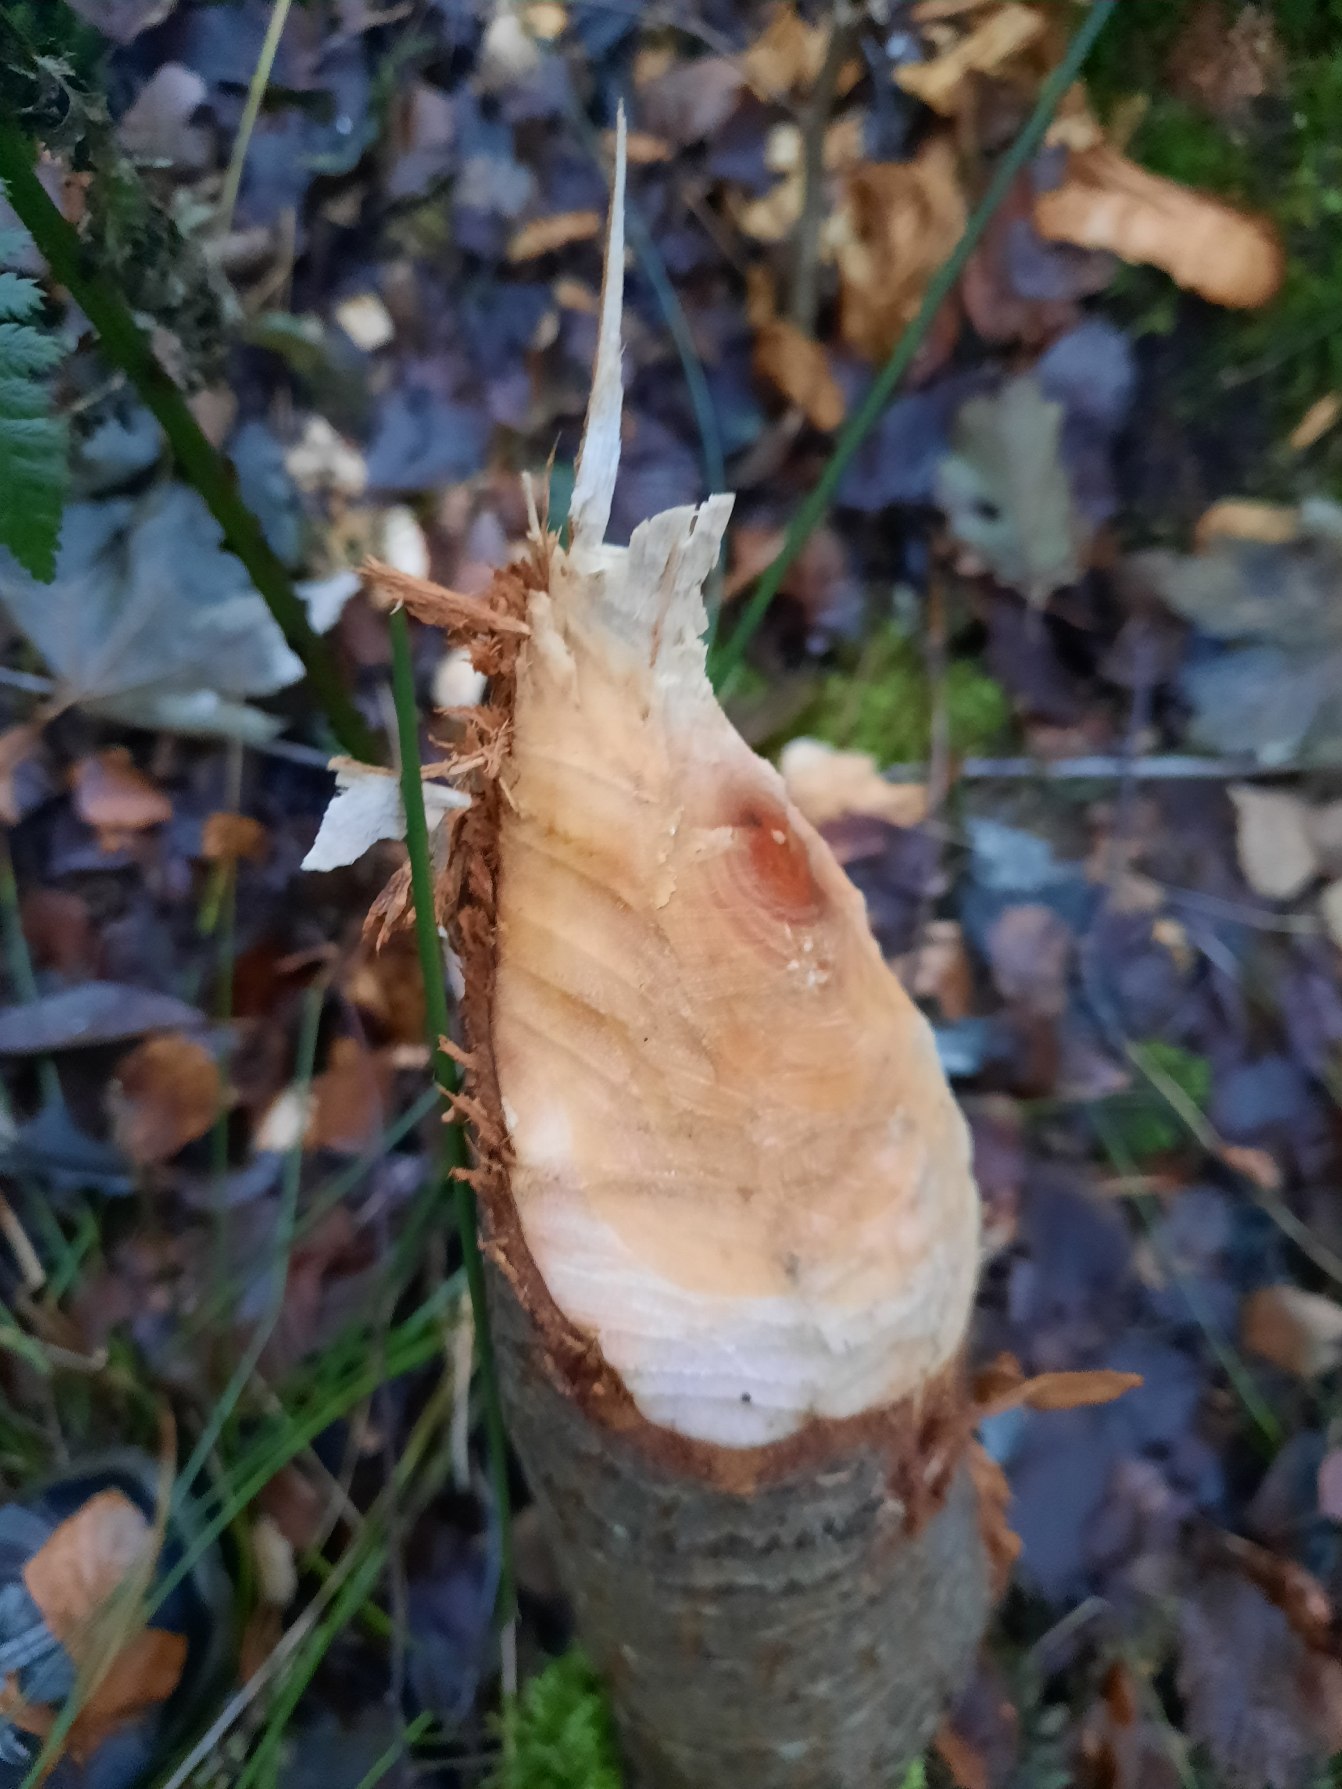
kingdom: Animalia
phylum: Chordata
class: Mammalia
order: Rodentia
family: Castoridae
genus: Castor
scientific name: Castor fiber
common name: Bæver
